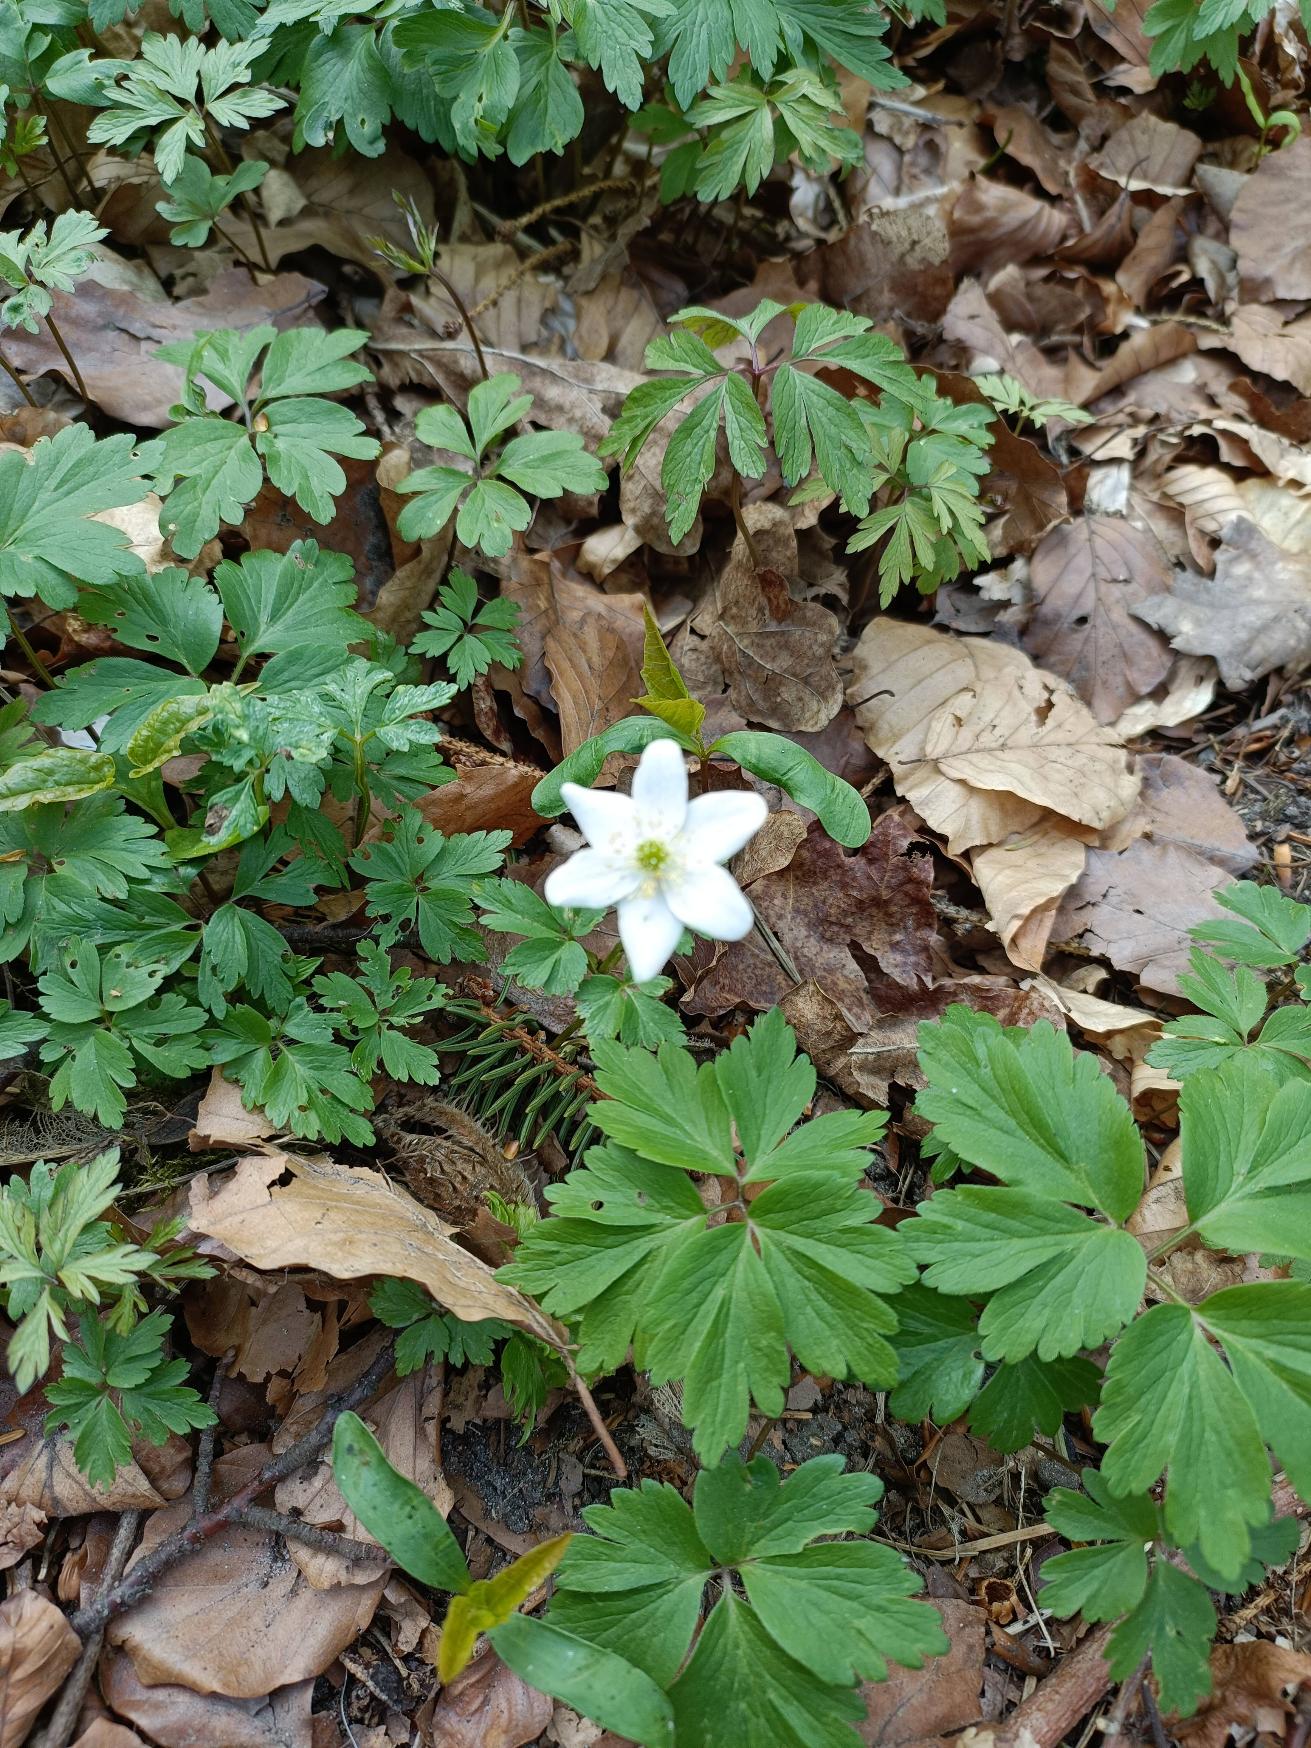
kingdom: Plantae
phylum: Tracheophyta
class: Magnoliopsida
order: Ranunculales
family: Ranunculaceae
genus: Anemone
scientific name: Anemone nemorosa
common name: Hvid anemone
